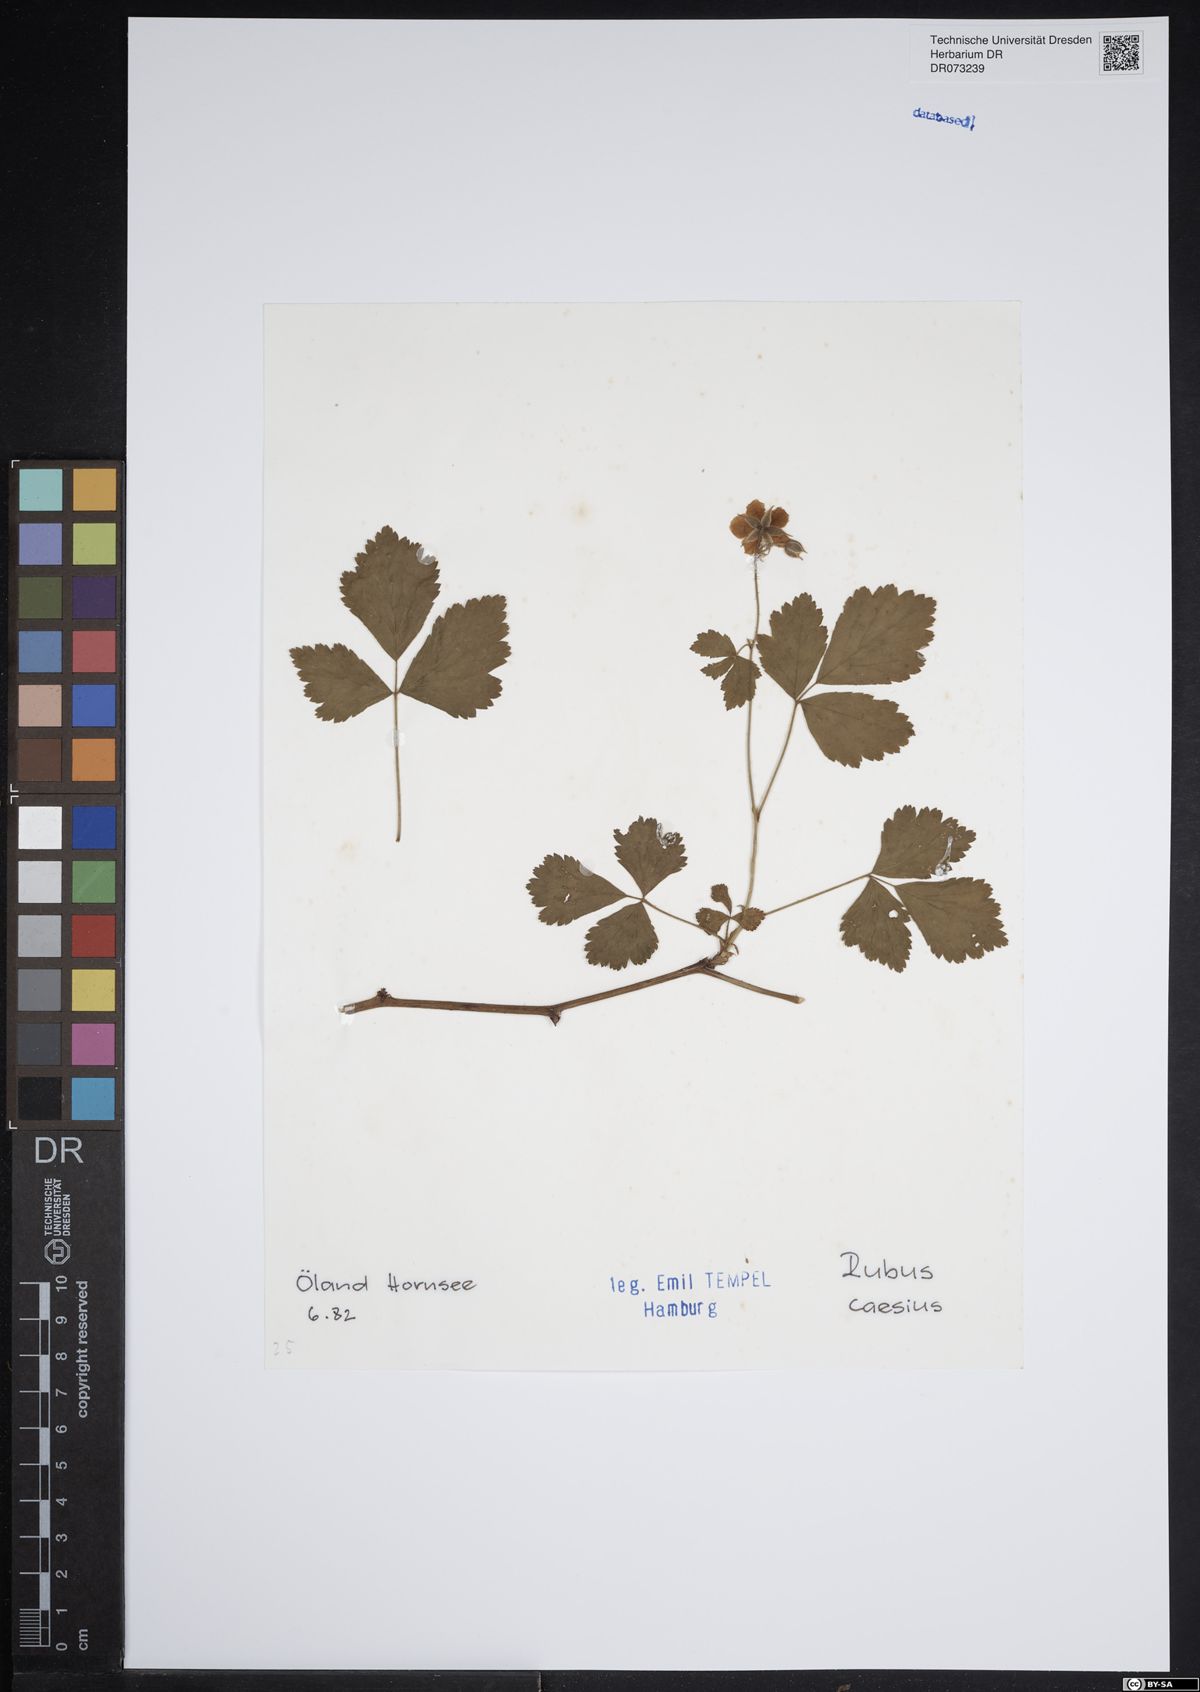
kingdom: Plantae
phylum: Tracheophyta
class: Magnoliopsida
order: Rosales
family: Rosaceae
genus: Rubus
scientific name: Rubus caesius
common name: Dewberry
